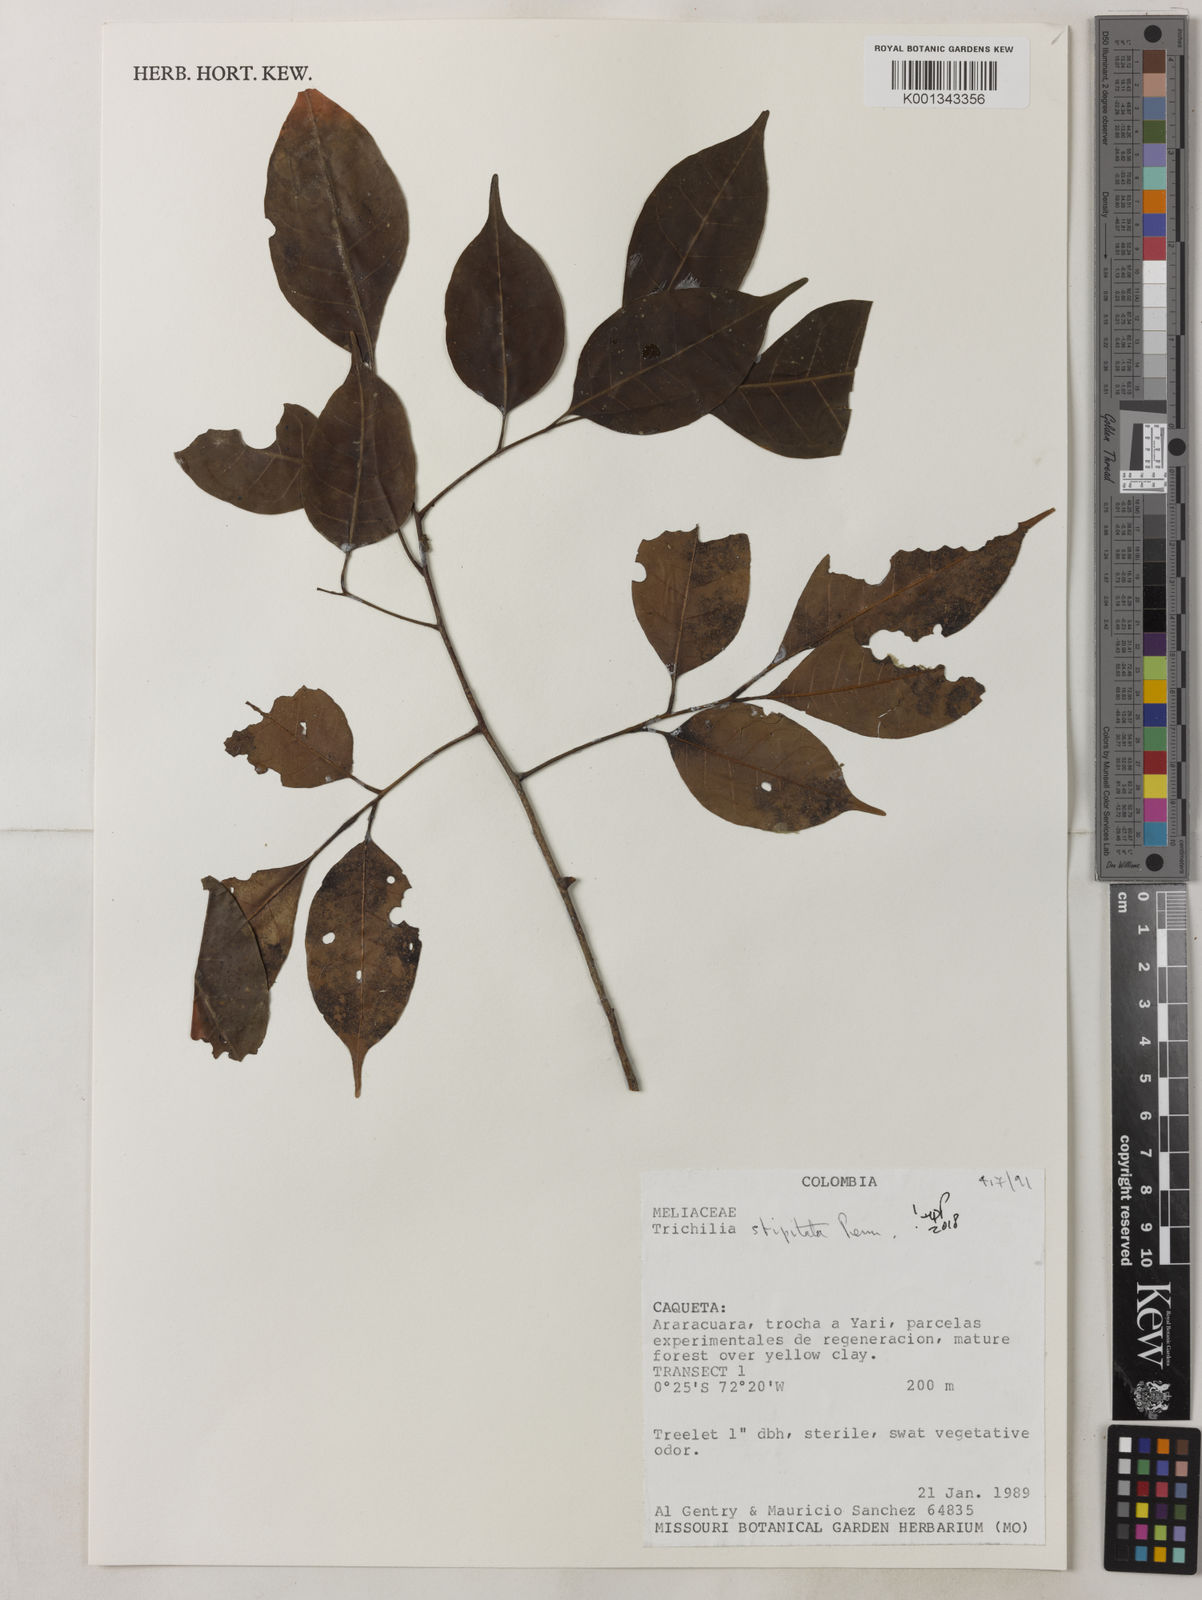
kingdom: Plantae
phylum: Tracheophyta
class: Magnoliopsida
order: Sapindales
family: Meliaceae
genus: Trichilia
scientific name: Trichilia stipitata
